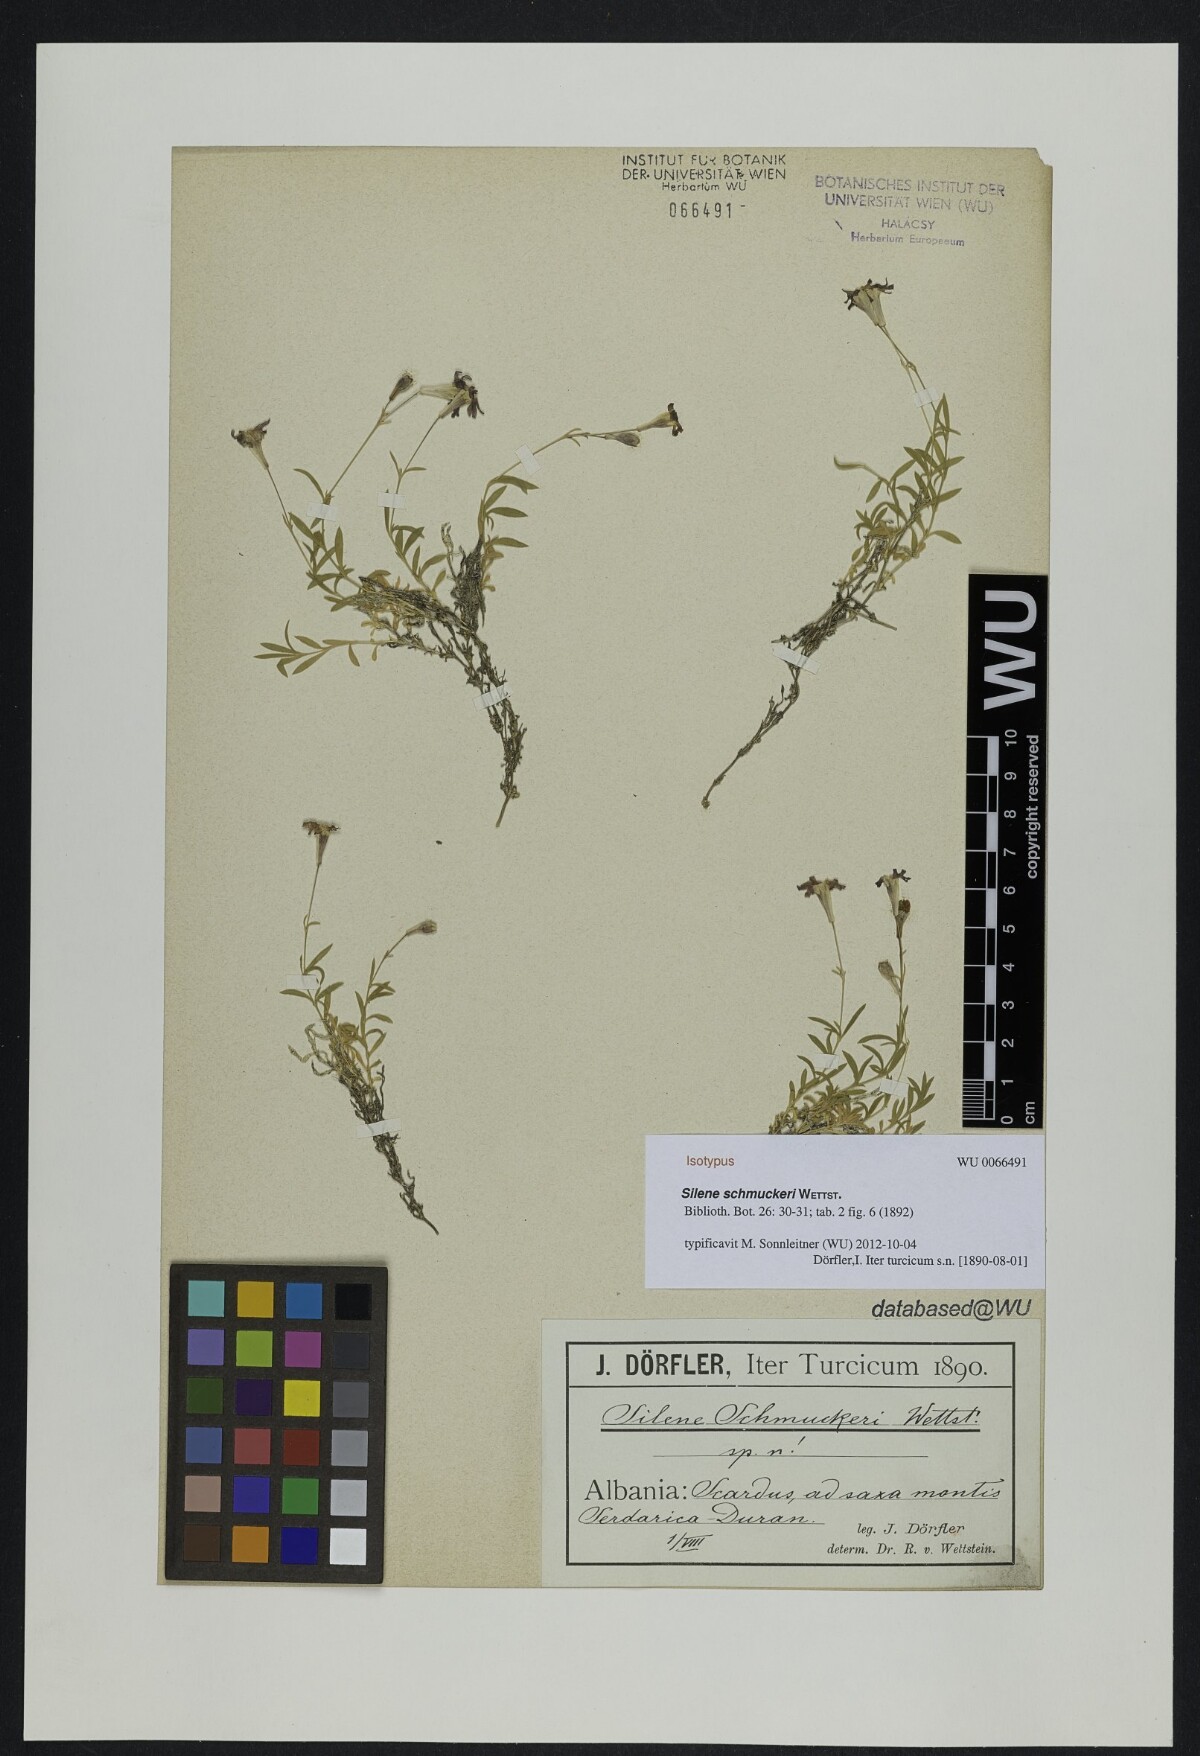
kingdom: Plantae
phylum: Tracheophyta
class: Magnoliopsida
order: Caryophyllales
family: Caryophyllaceae
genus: Silene
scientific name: Silene schmuckeri
